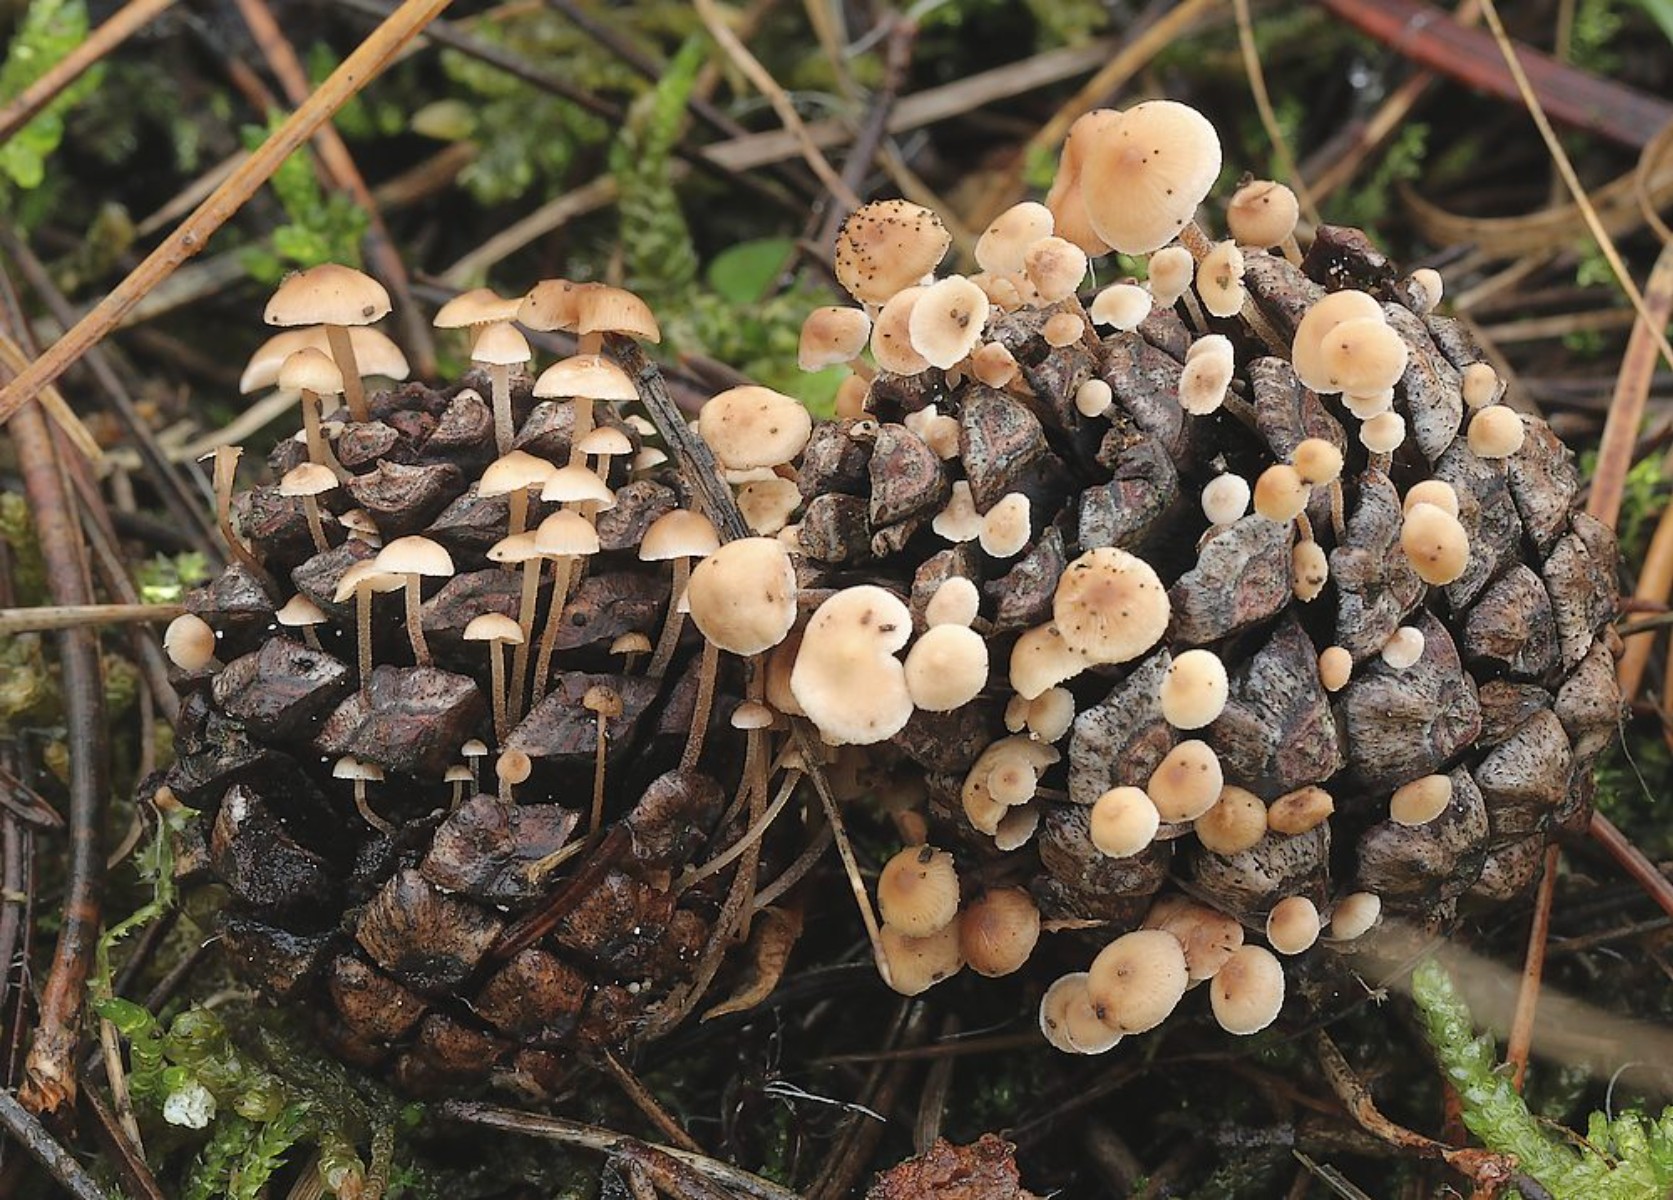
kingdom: Fungi
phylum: Basidiomycota
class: Agaricomycetes
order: Agaricales
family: Marasmiaceae
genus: Baeospora
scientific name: Baeospora myosura
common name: koglebruskhat
